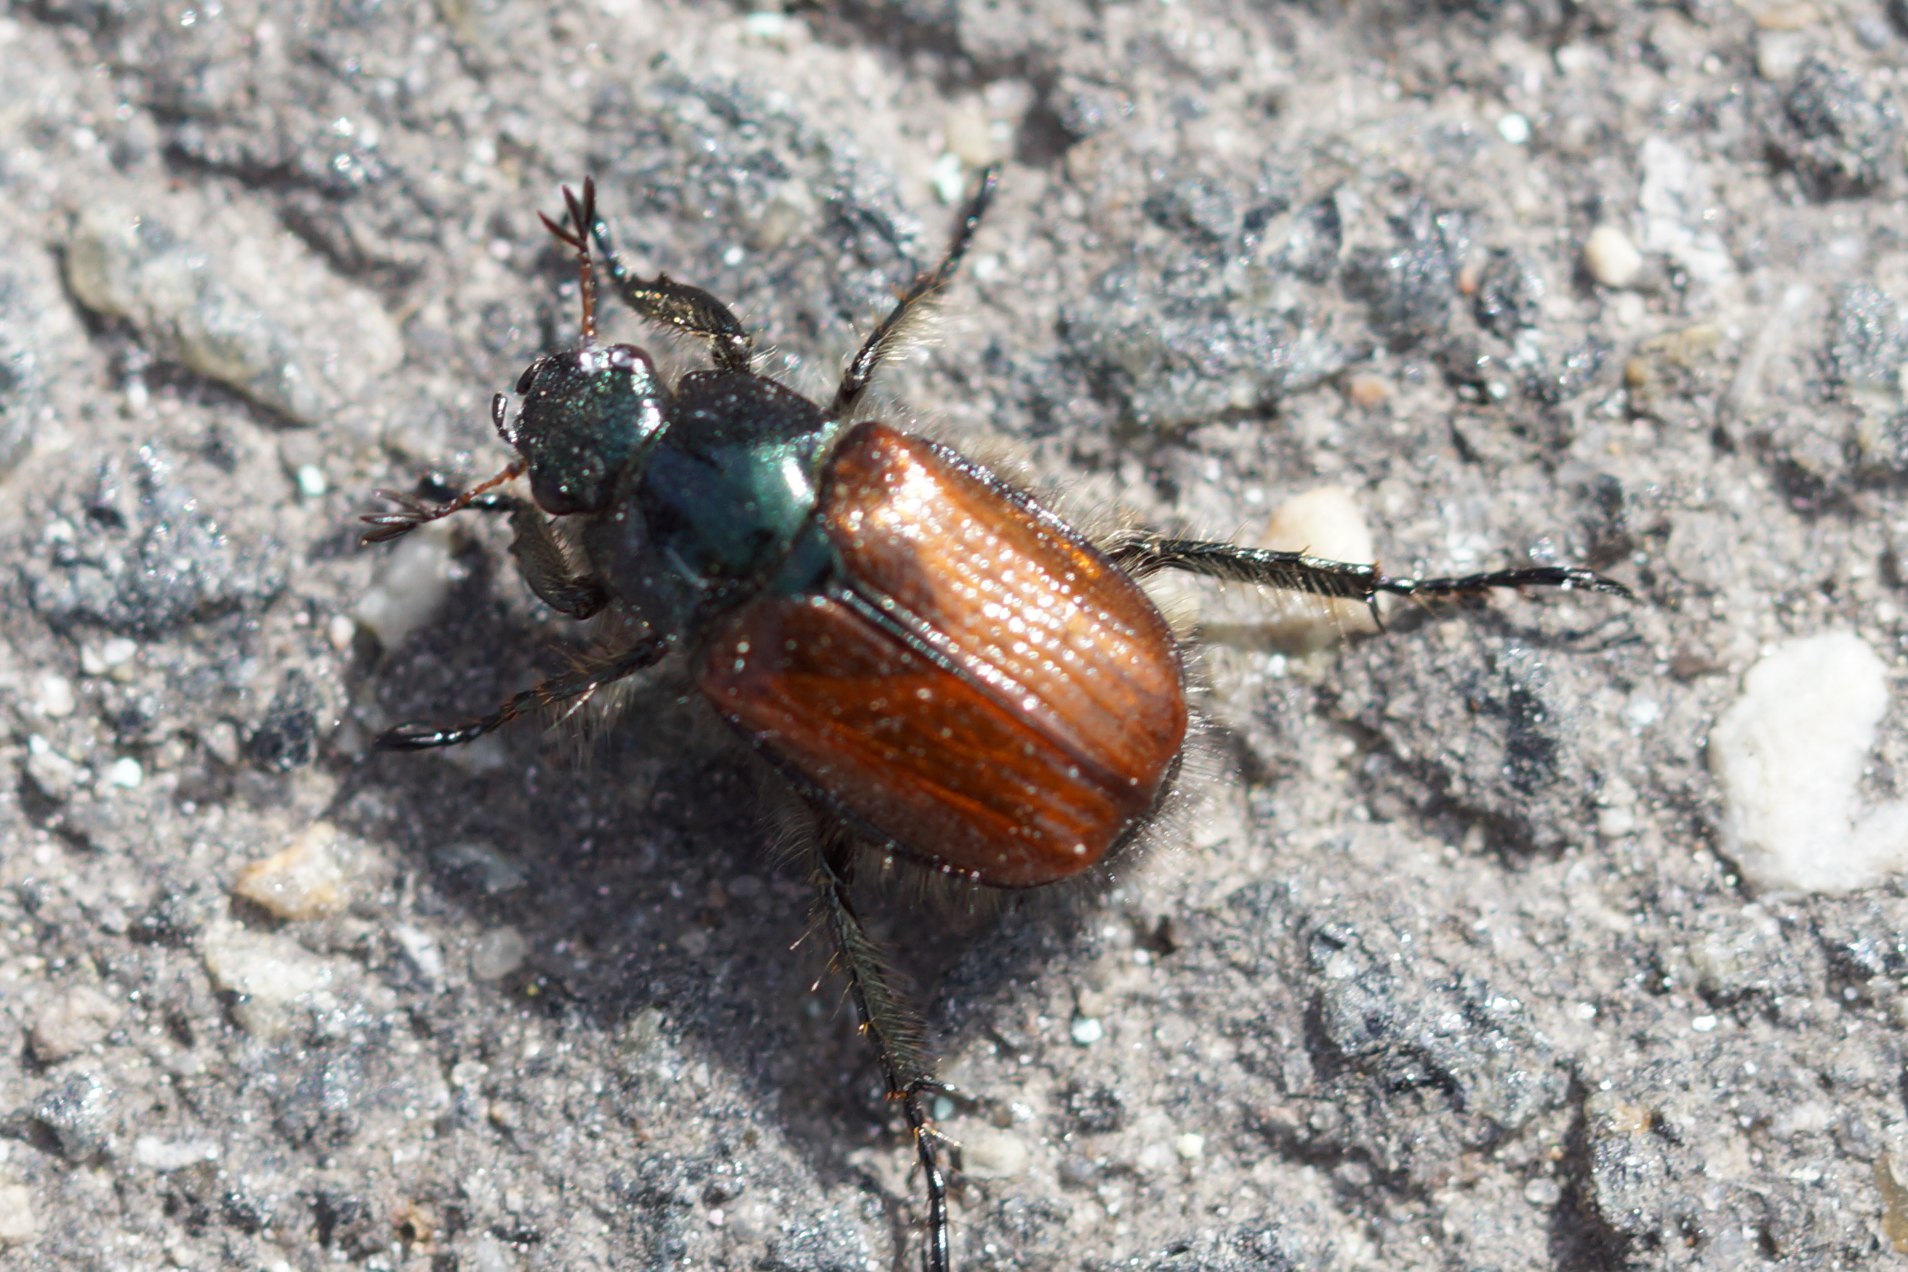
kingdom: Animalia
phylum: Arthropoda
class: Insecta
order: Coleoptera
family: Scarabaeidae
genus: Phyllopertha
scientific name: Phyllopertha horticola
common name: Gåsebille
